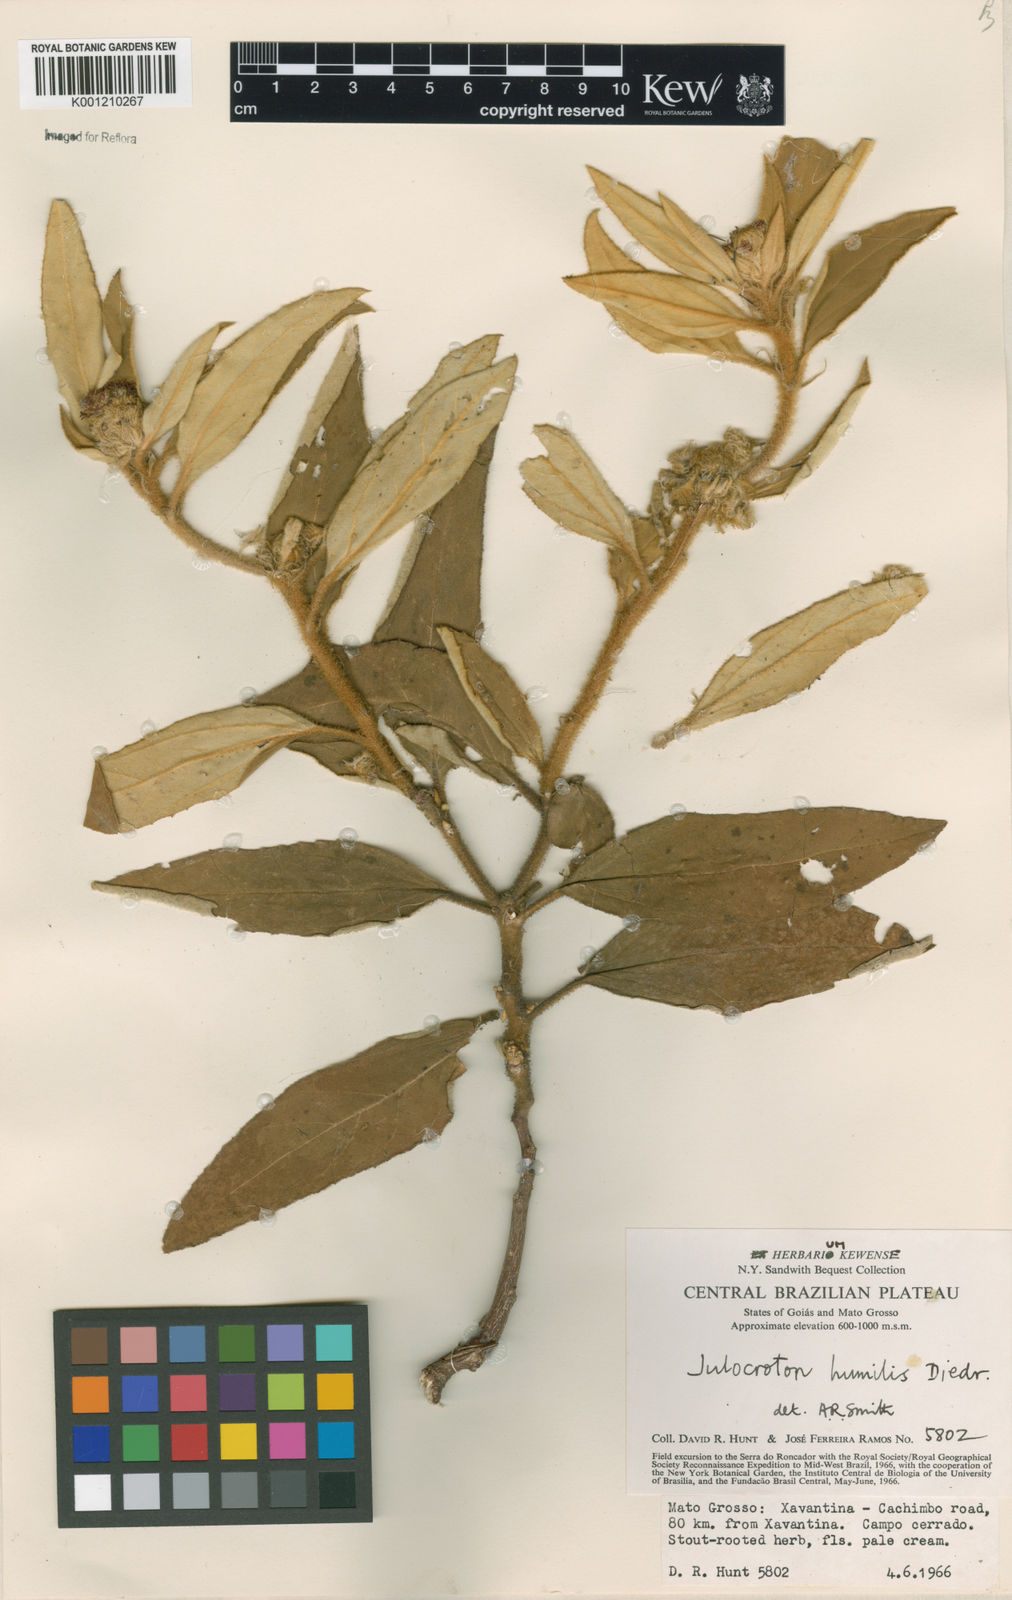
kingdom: Plantae
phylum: Tracheophyta
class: Magnoliopsida
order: Malpighiales
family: Euphorbiaceae
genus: Croton
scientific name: Croton solanaceus
